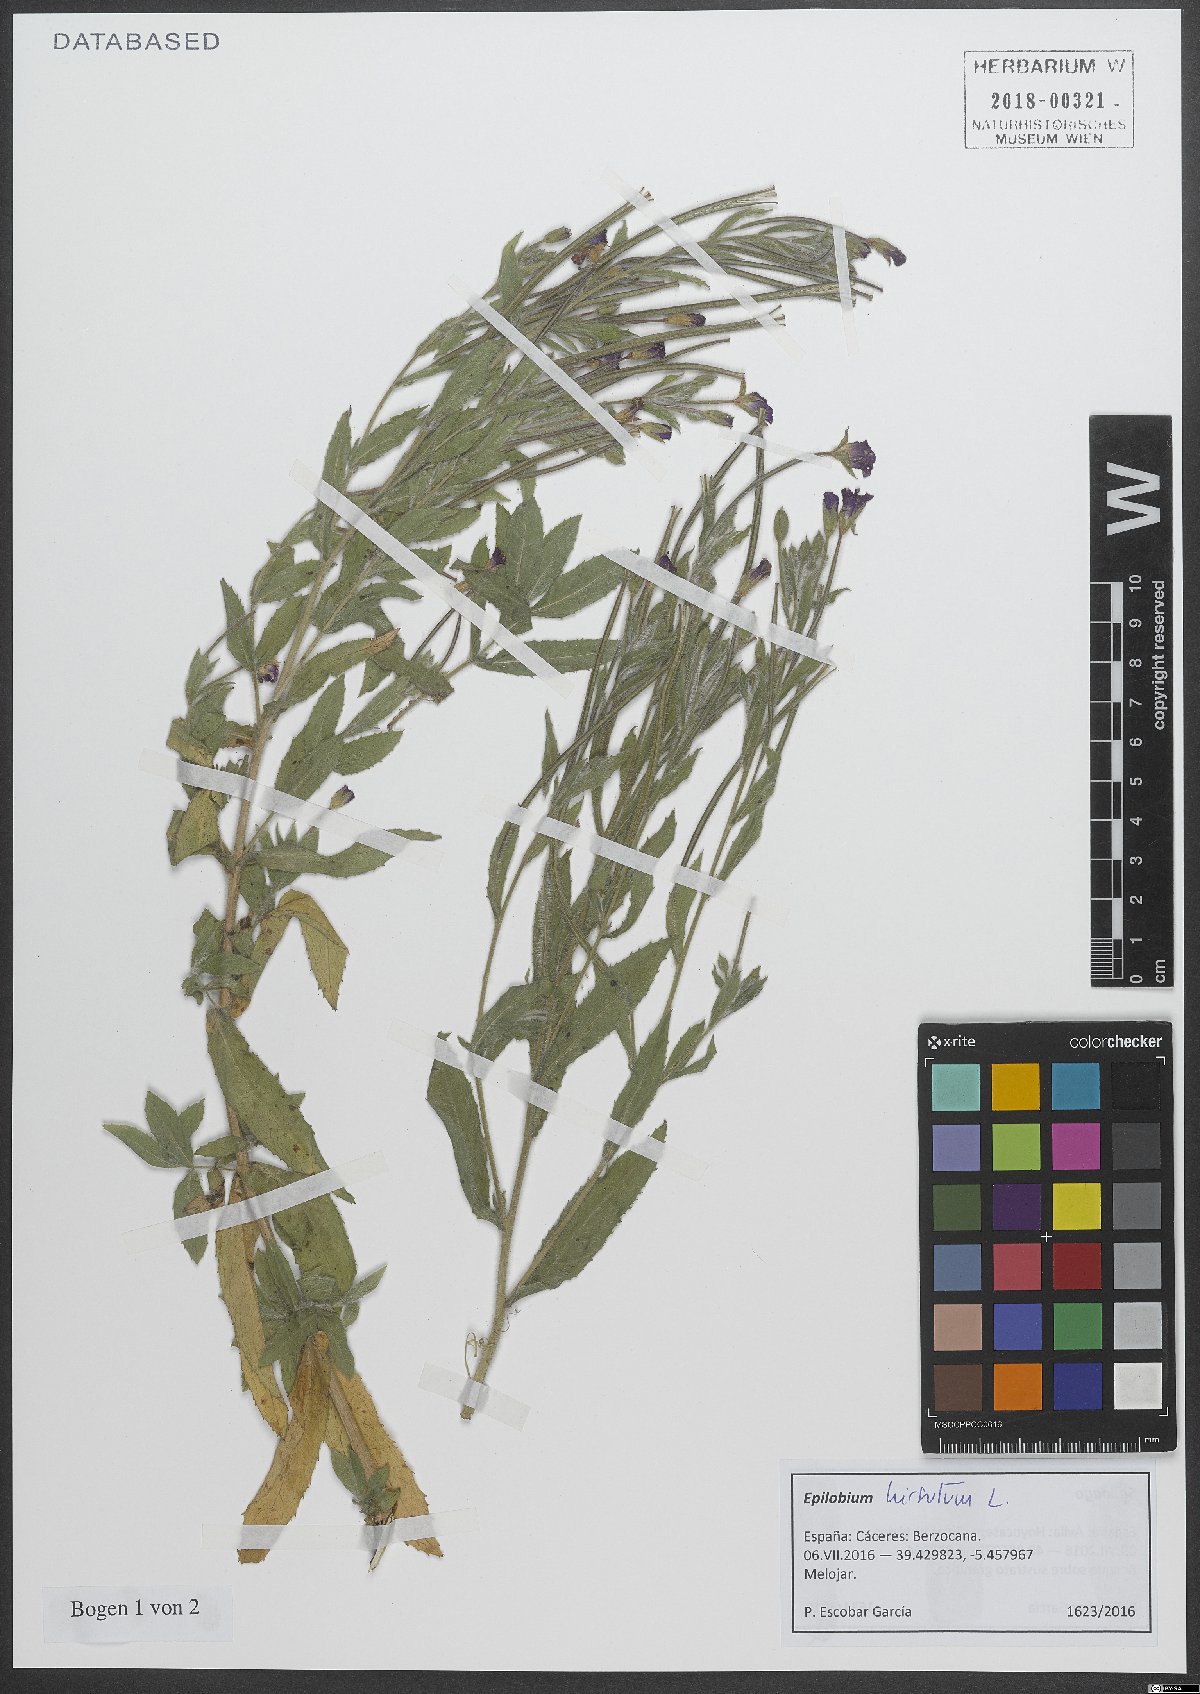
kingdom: Plantae
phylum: Tracheophyta
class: Magnoliopsida
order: Myrtales
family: Onagraceae
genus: Epilobium
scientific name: Epilobium hirsutum
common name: Great willowherb
